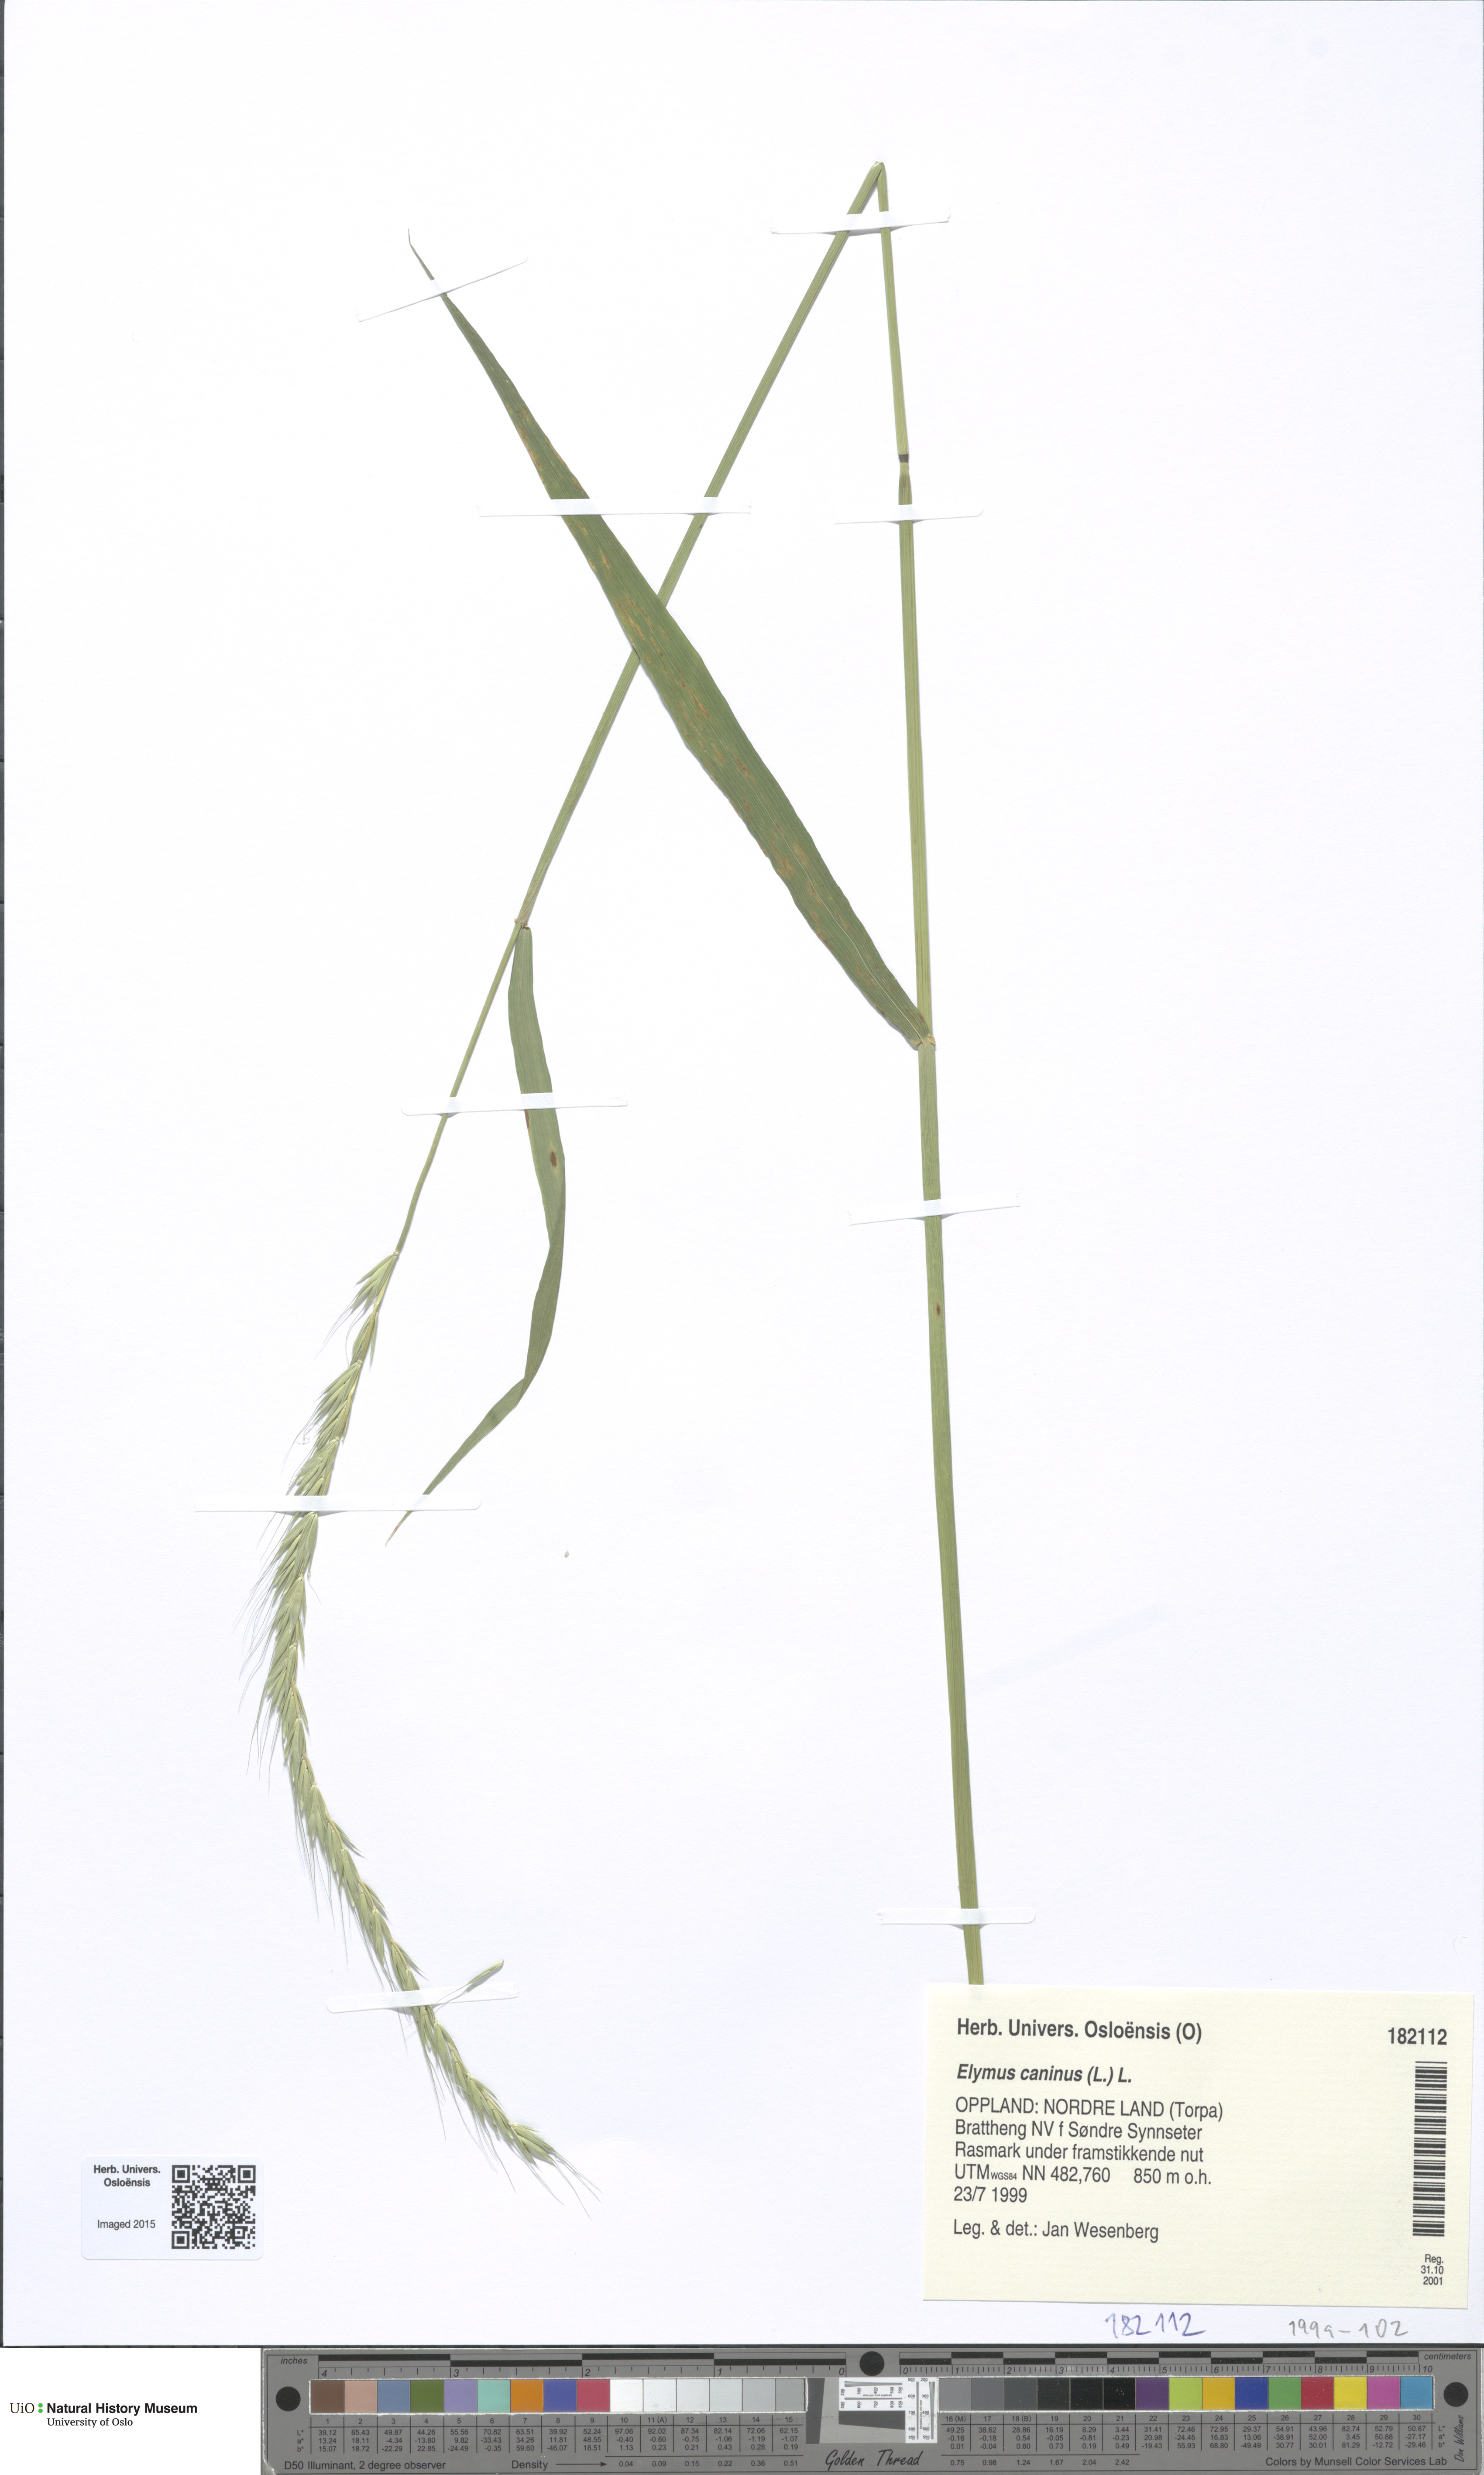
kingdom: Plantae
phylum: Tracheophyta
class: Liliopsida
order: Poales
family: Poaceae
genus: Elymus
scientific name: Elymus caninus
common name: Bearded couch
